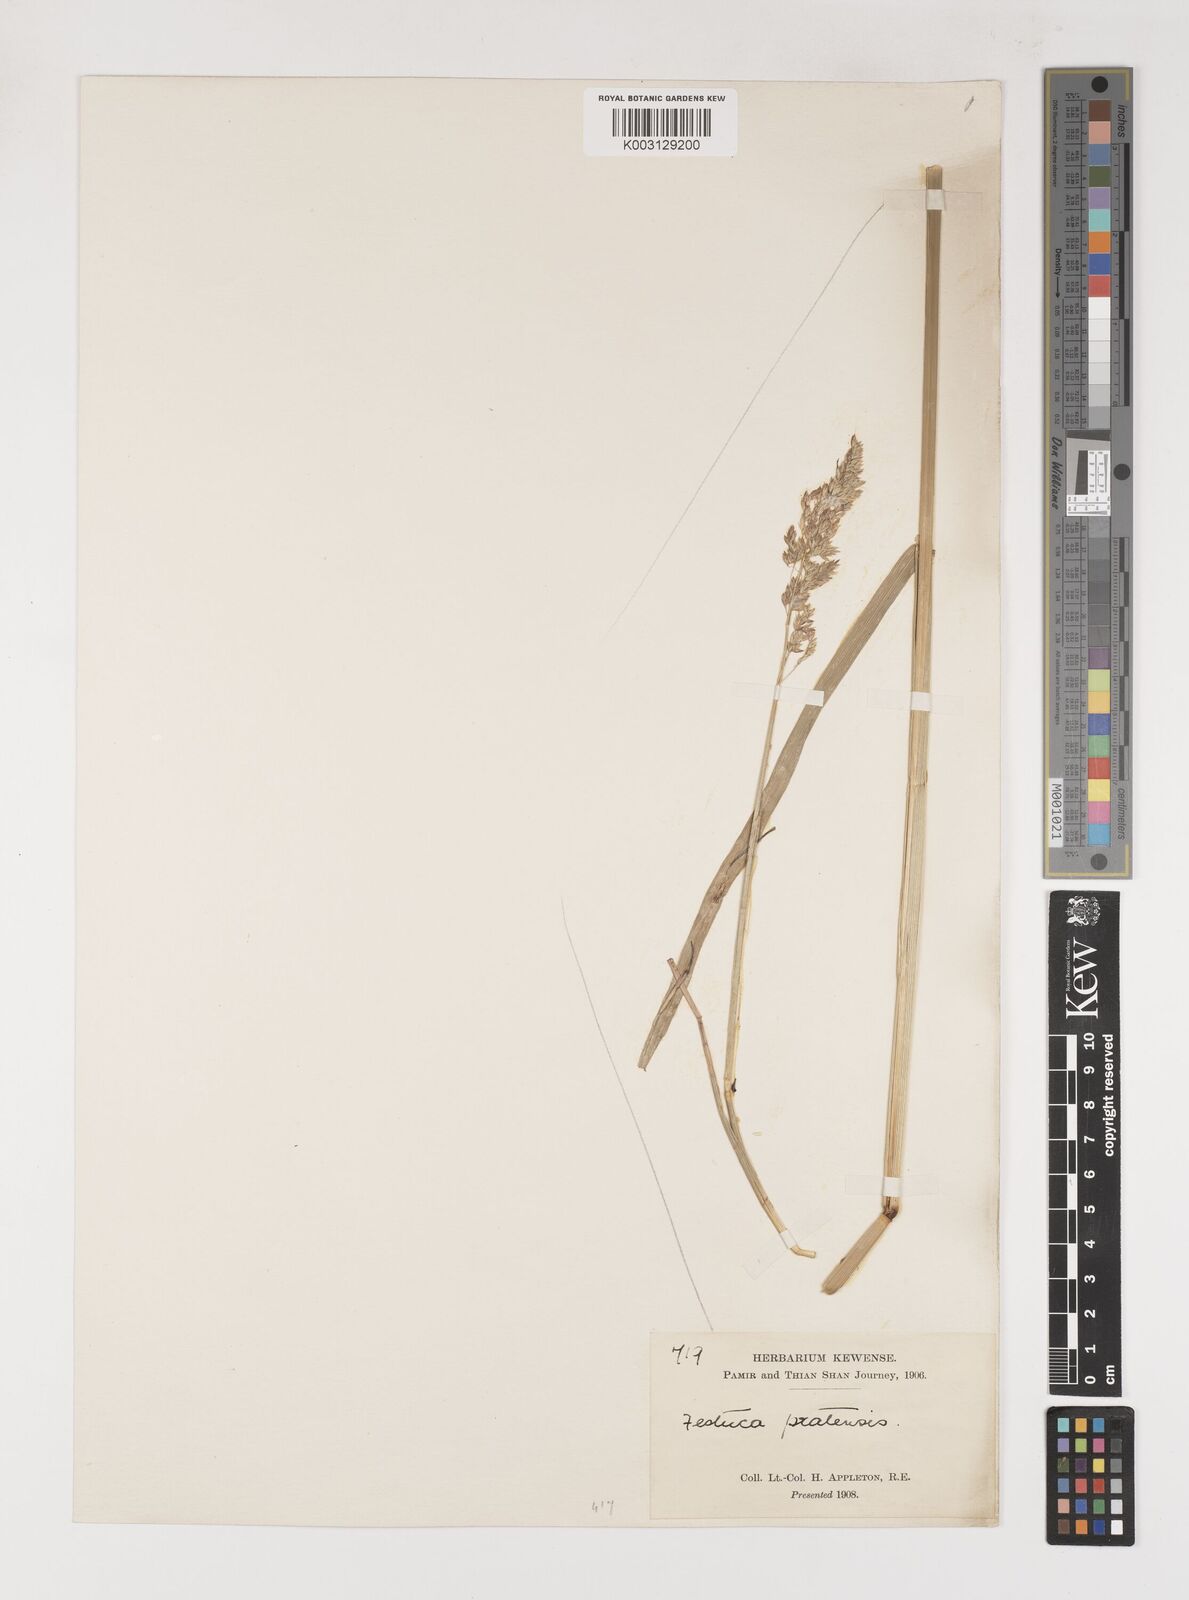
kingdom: Plantae
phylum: Tracheophyta
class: Liliopsida
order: Poales
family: Poaceae
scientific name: Poaceae
